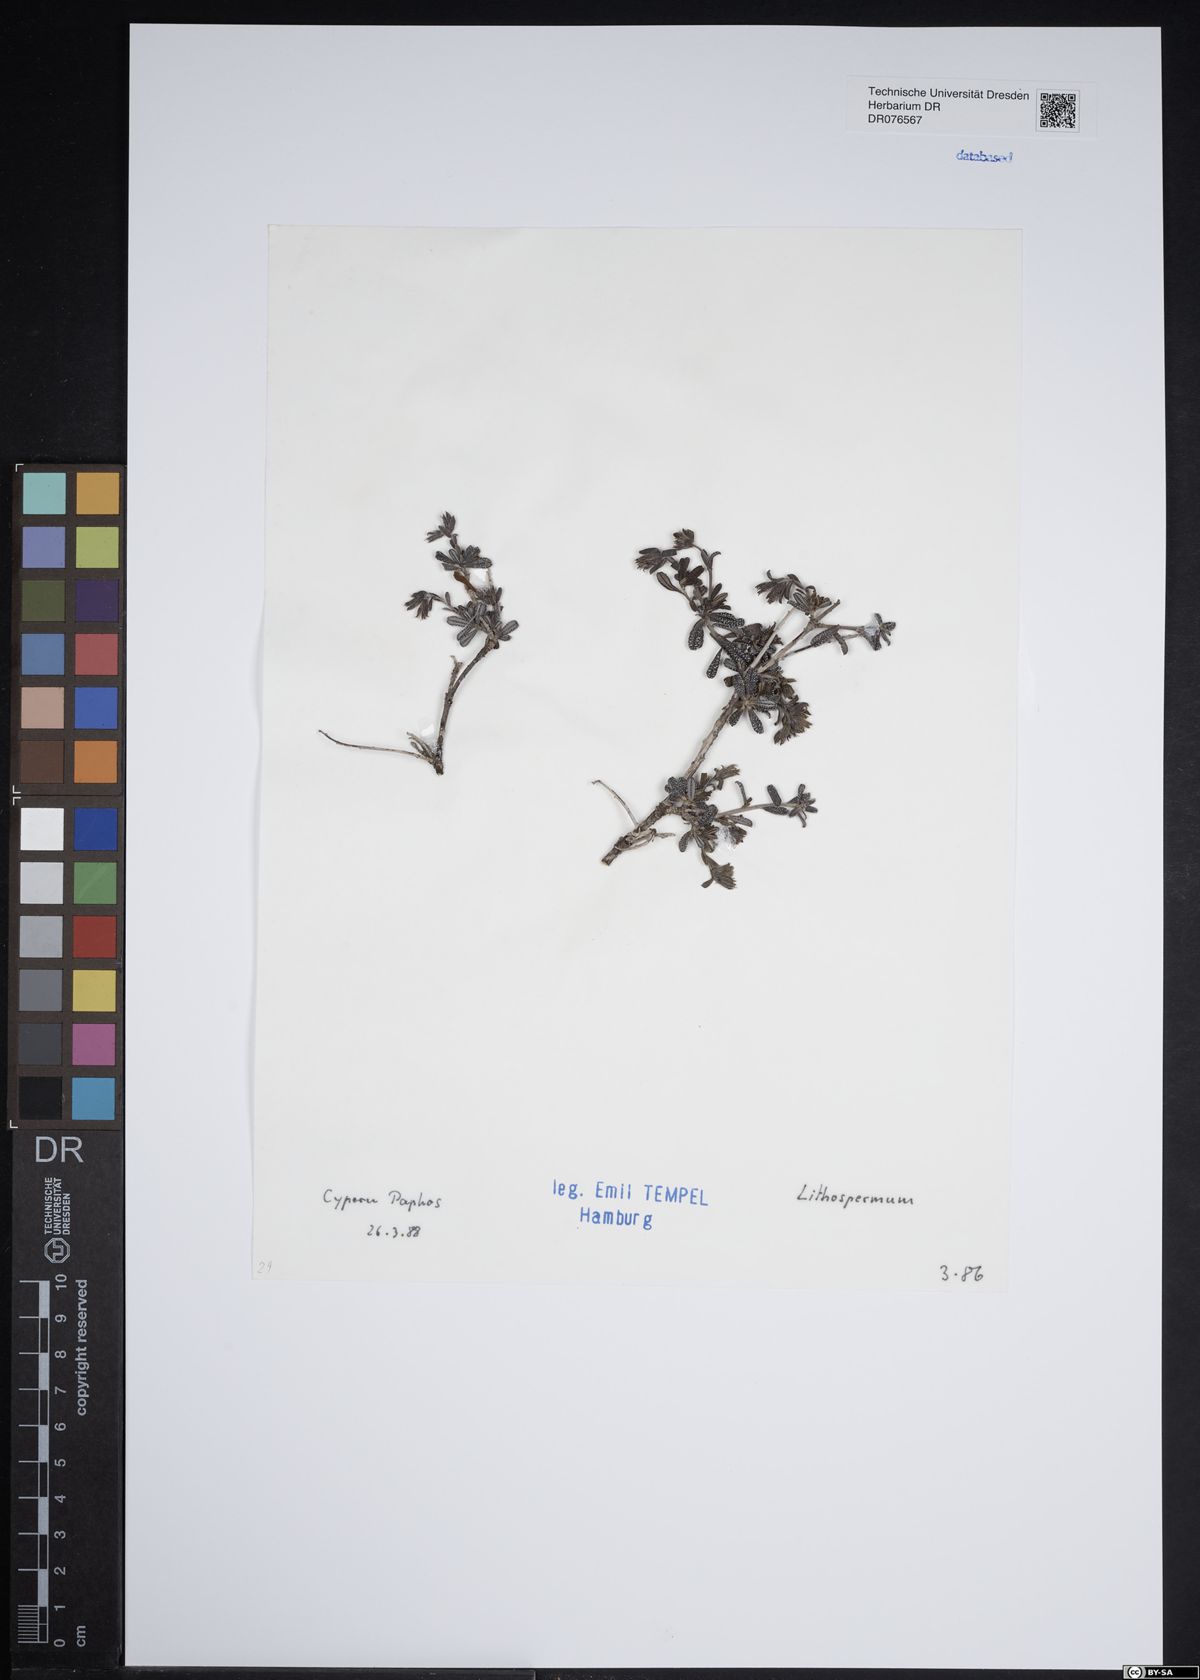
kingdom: Plantae
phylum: Tracheophyta
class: Magnoliopsida
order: Boraginales
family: Boraginaceae
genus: Lithospermum
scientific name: Lithospermum
